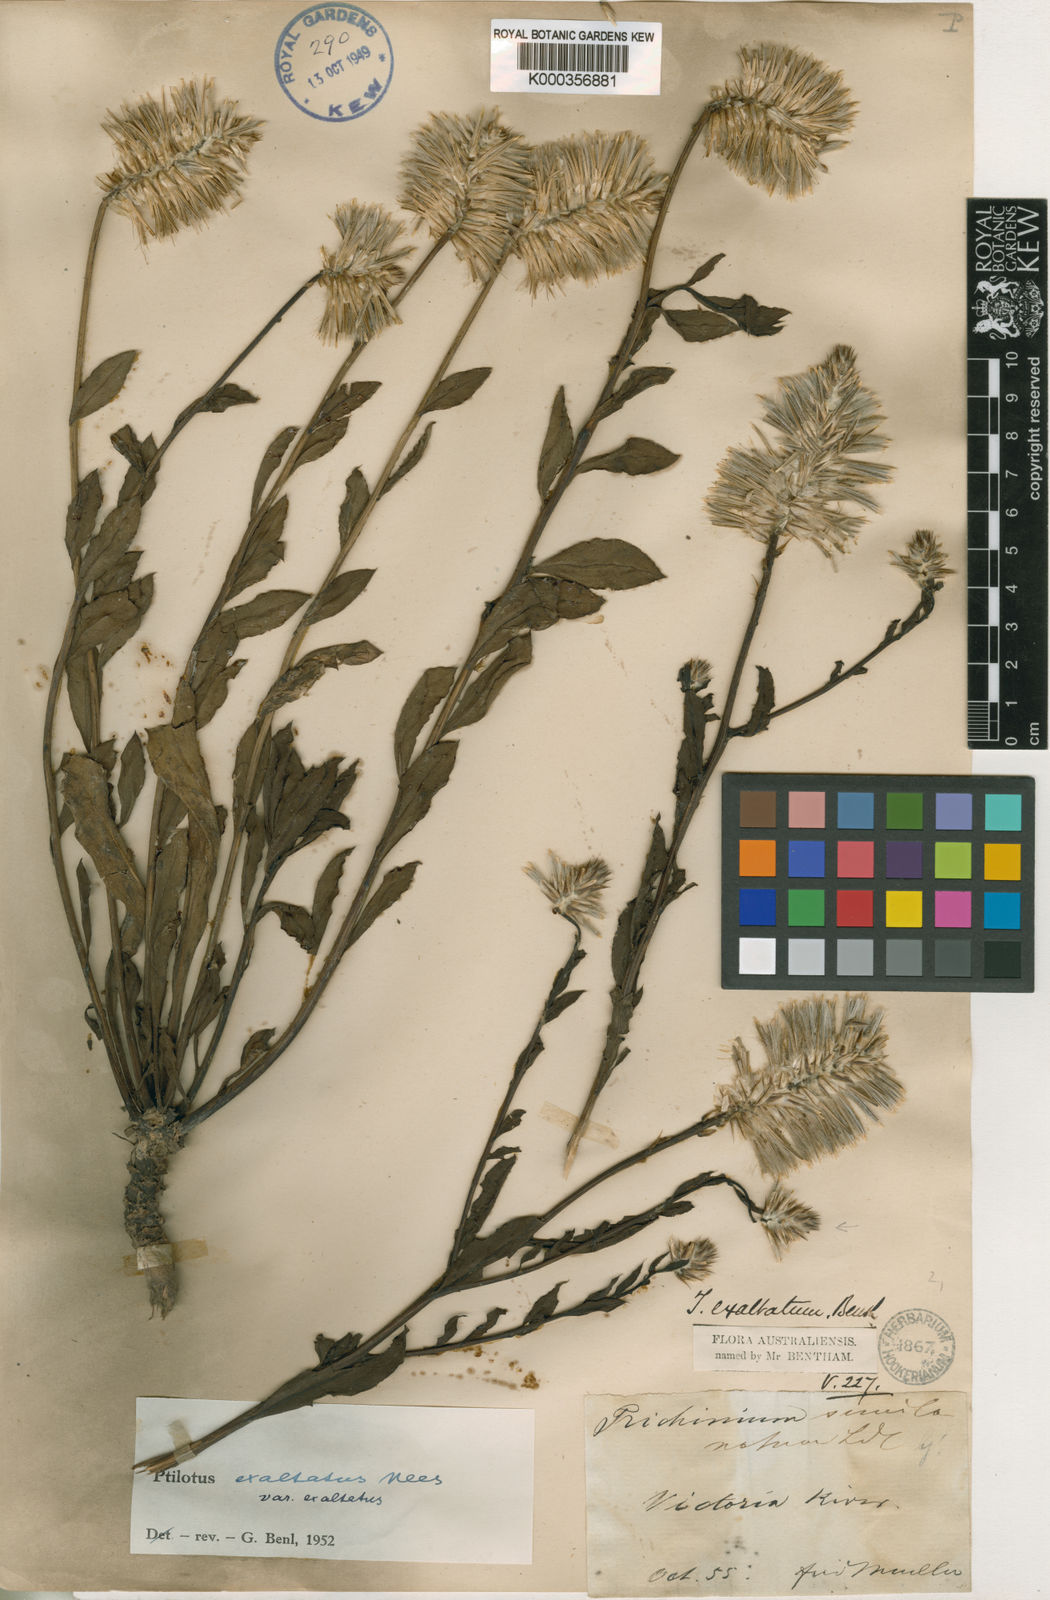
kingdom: Plantae
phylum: Tracheophyta
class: Magnoliopsida
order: Caryophyllales
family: Amaranthaceae
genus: Ptilotus
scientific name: Ptilotus
